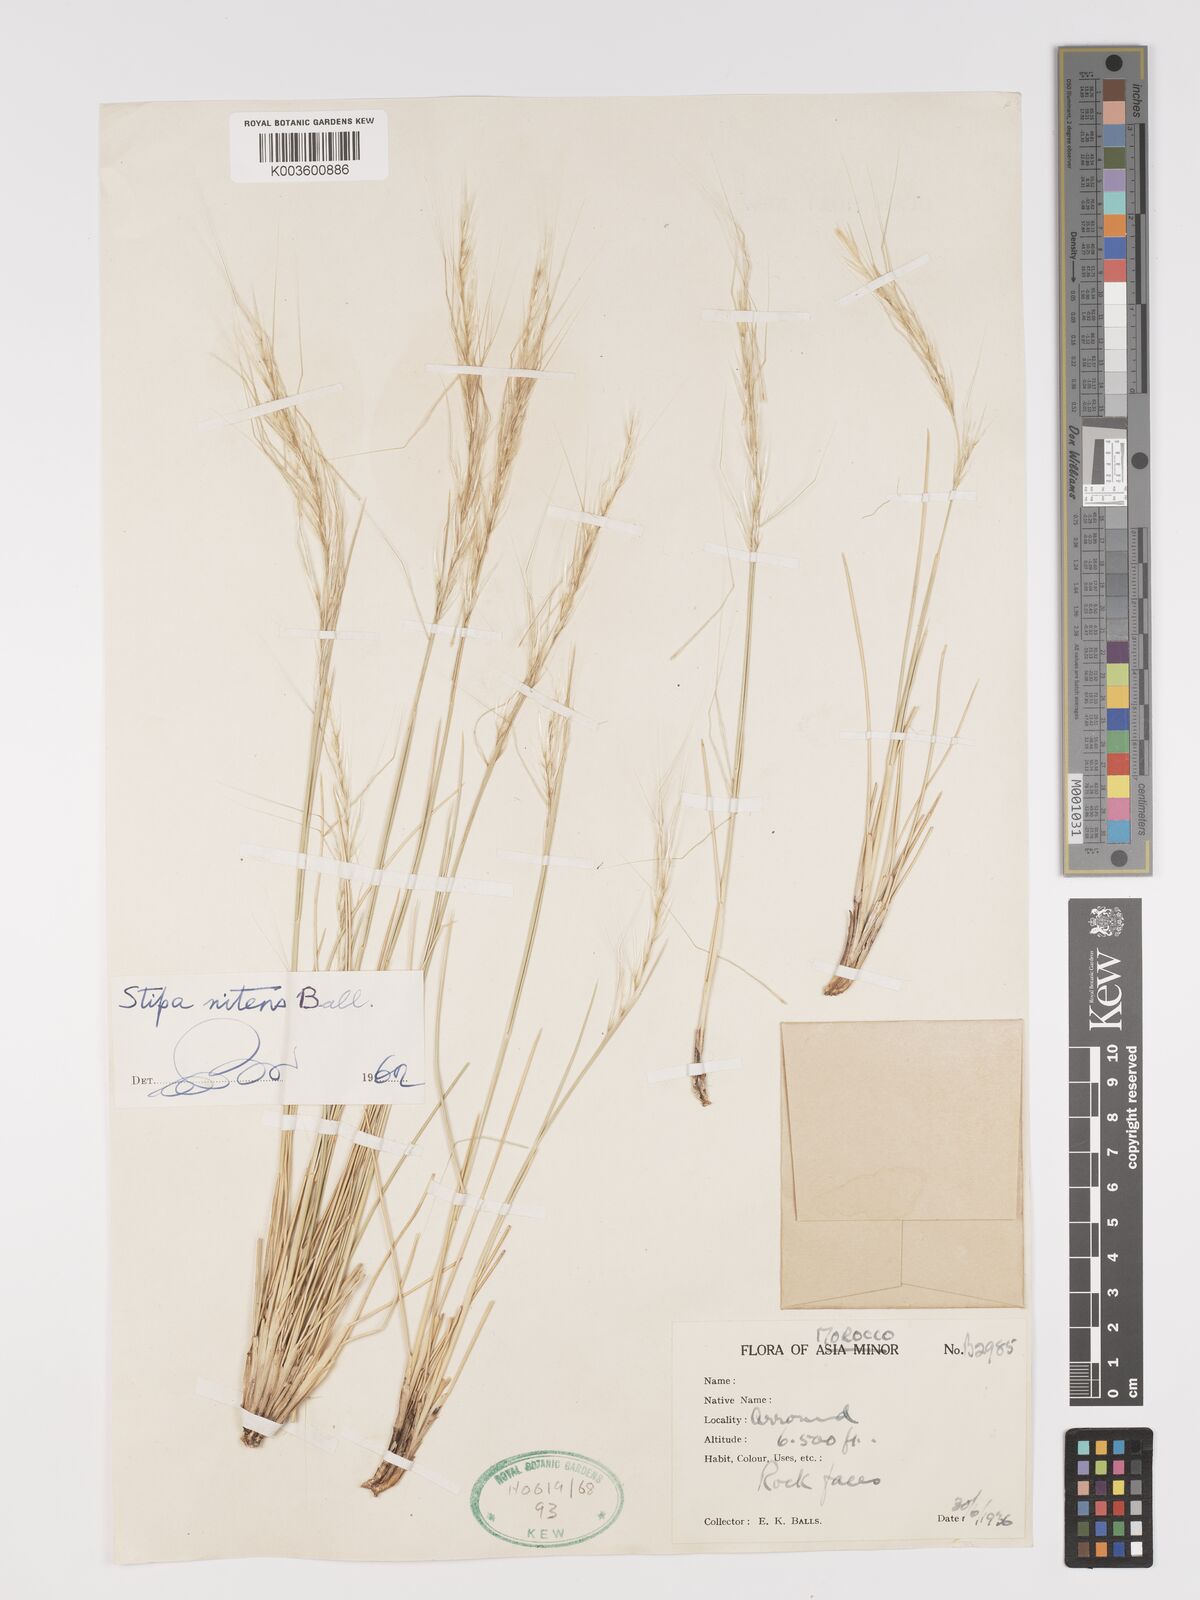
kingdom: Plantae
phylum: Tracheophyta
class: Liliopsida
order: Poales
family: Poaceae
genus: Stipa
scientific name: Stipa nitens
